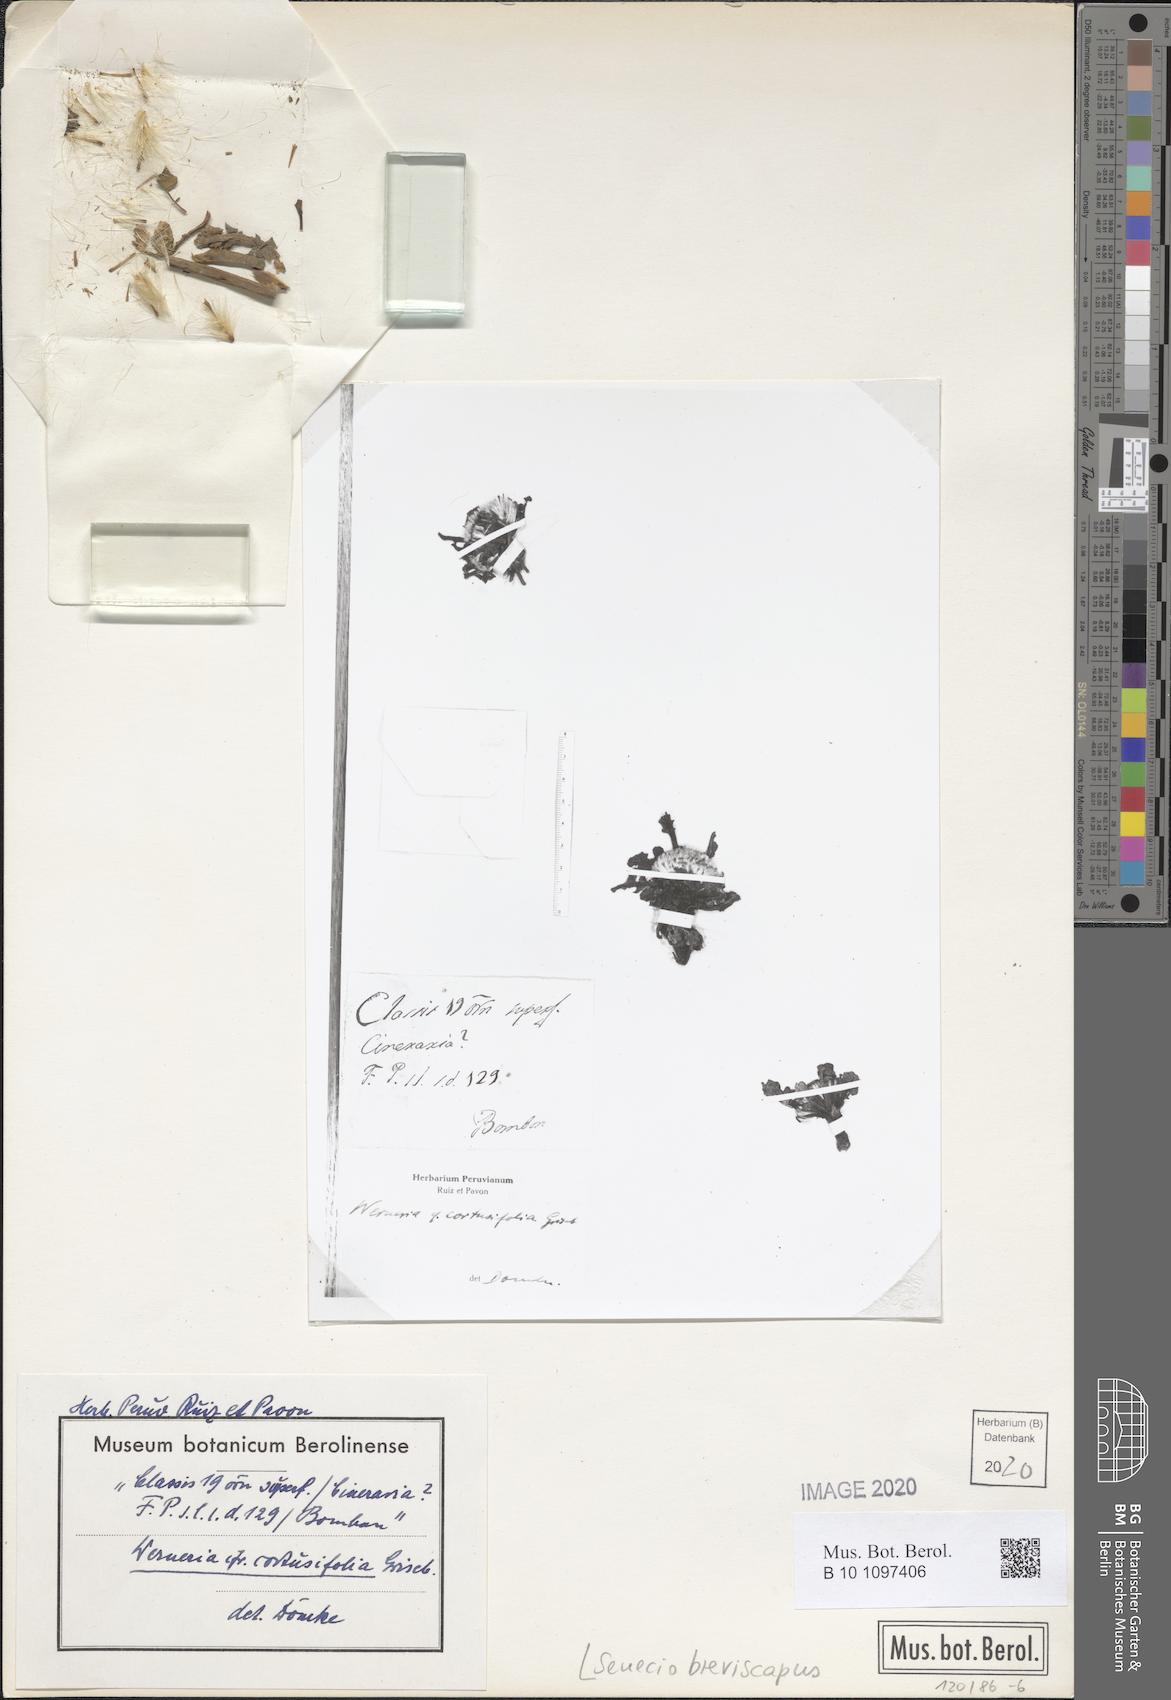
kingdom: Plantae
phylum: Tracheophyta
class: Magnoliopsida
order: Asterales
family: Asteraceae
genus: Senecio
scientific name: Senecio breviscapus
